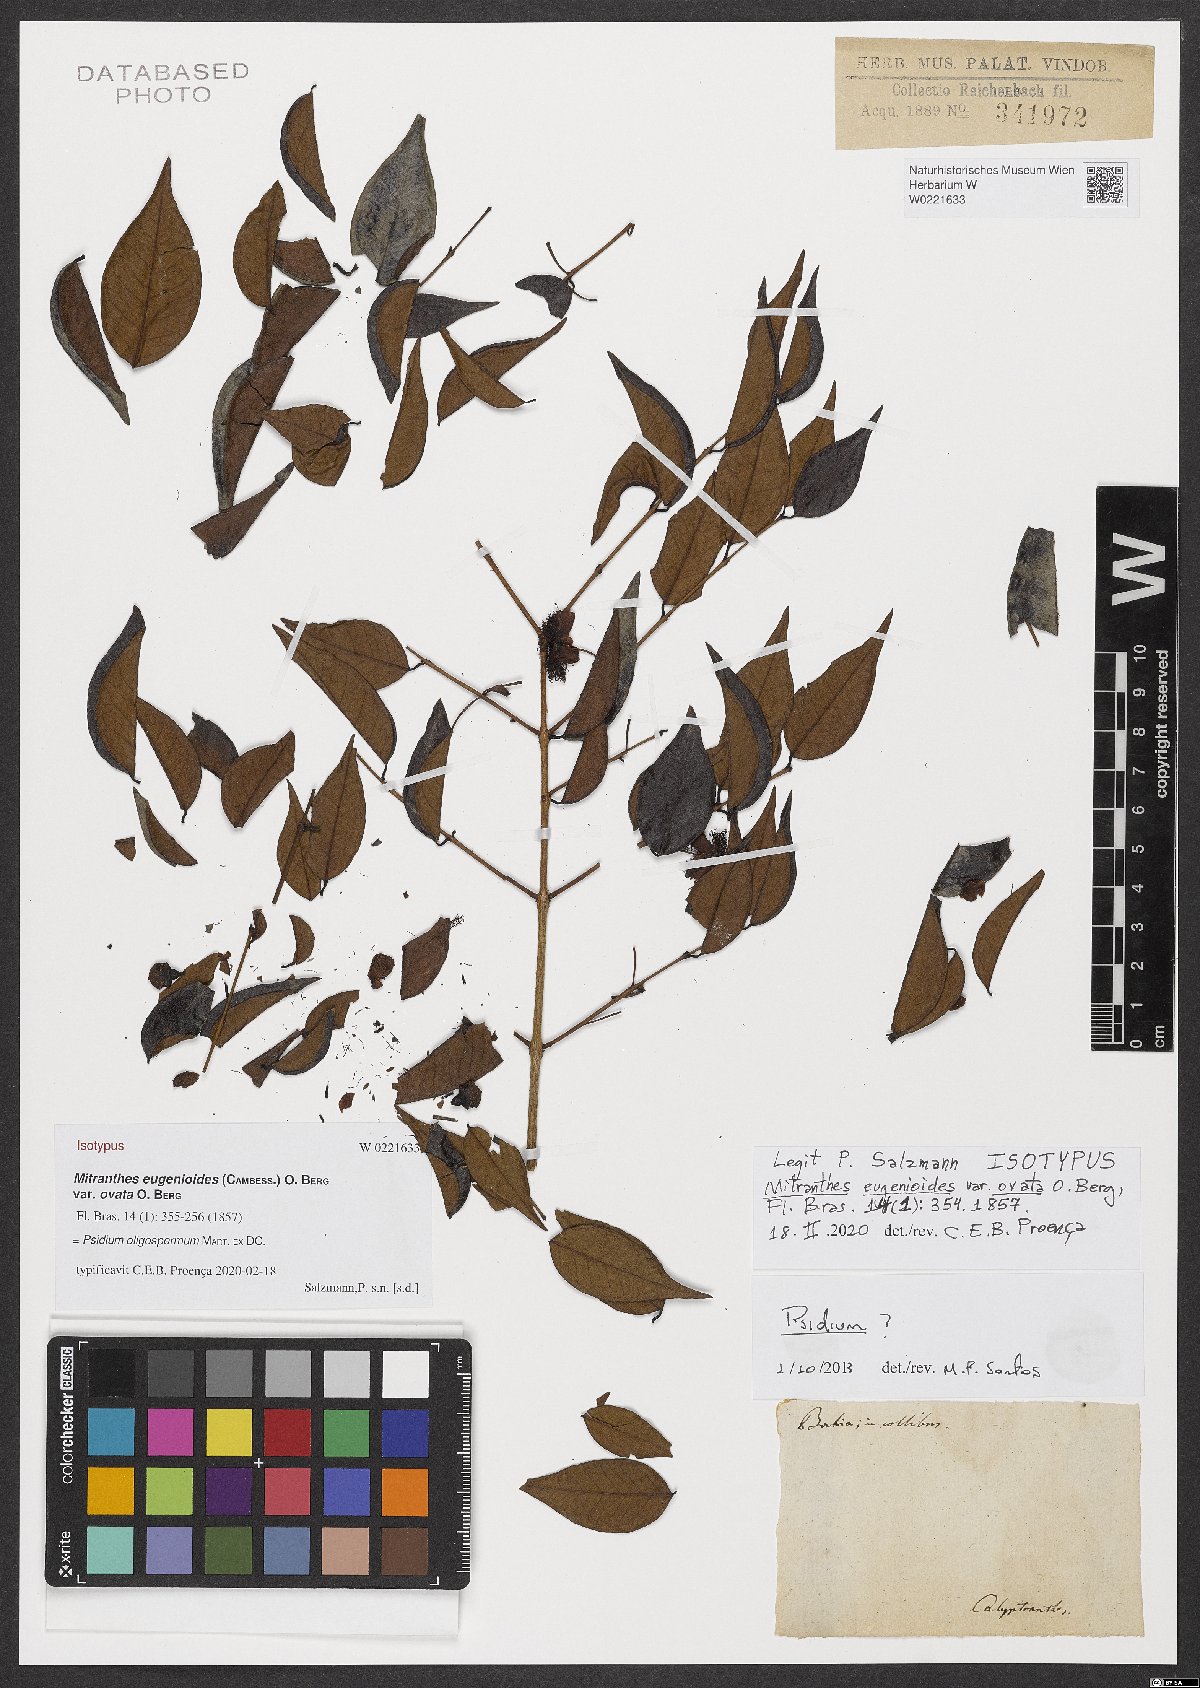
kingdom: Plantae
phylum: Tracheophyta
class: Magnoliopsida
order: Myrtales
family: Myrtaceae
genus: Psidium
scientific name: Psidium oligospermum
